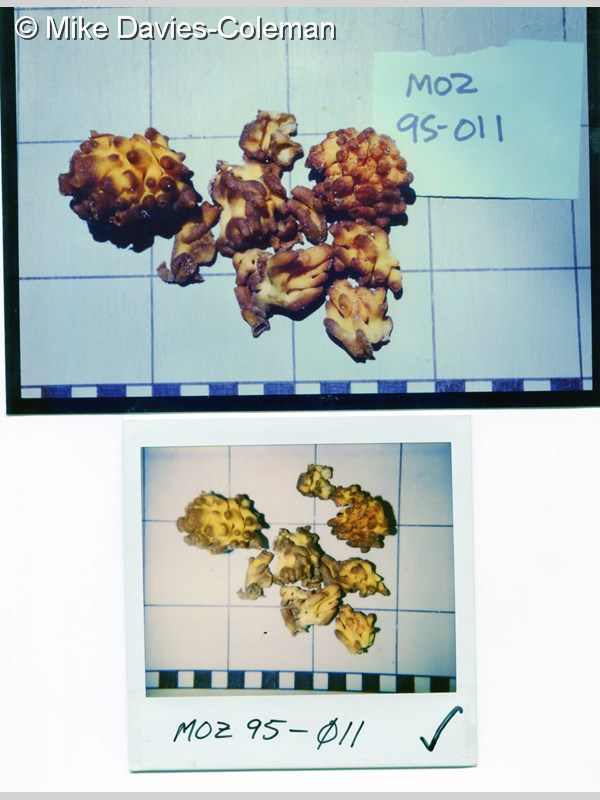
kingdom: Animalia
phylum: Porifera
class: Calcarea
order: Clathrinida
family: Clathrinidae
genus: Clathrina
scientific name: Clathrina
